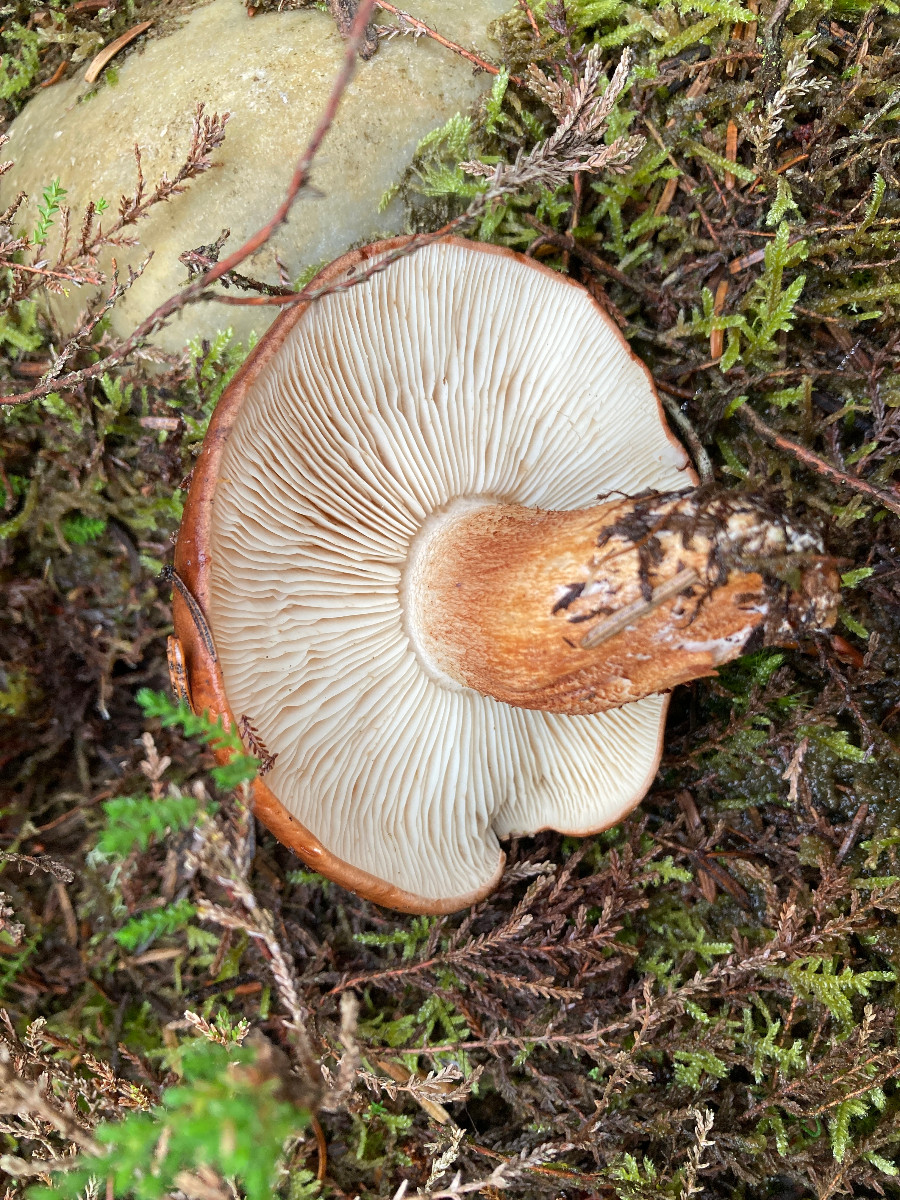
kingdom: Fungi
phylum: Basidiomycota
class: Agaricomycetes
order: Agaricales
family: Tricholomataceae
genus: Tricholoma
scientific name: Tricholoma pessundatum
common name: dråbeplettet ridderhat
